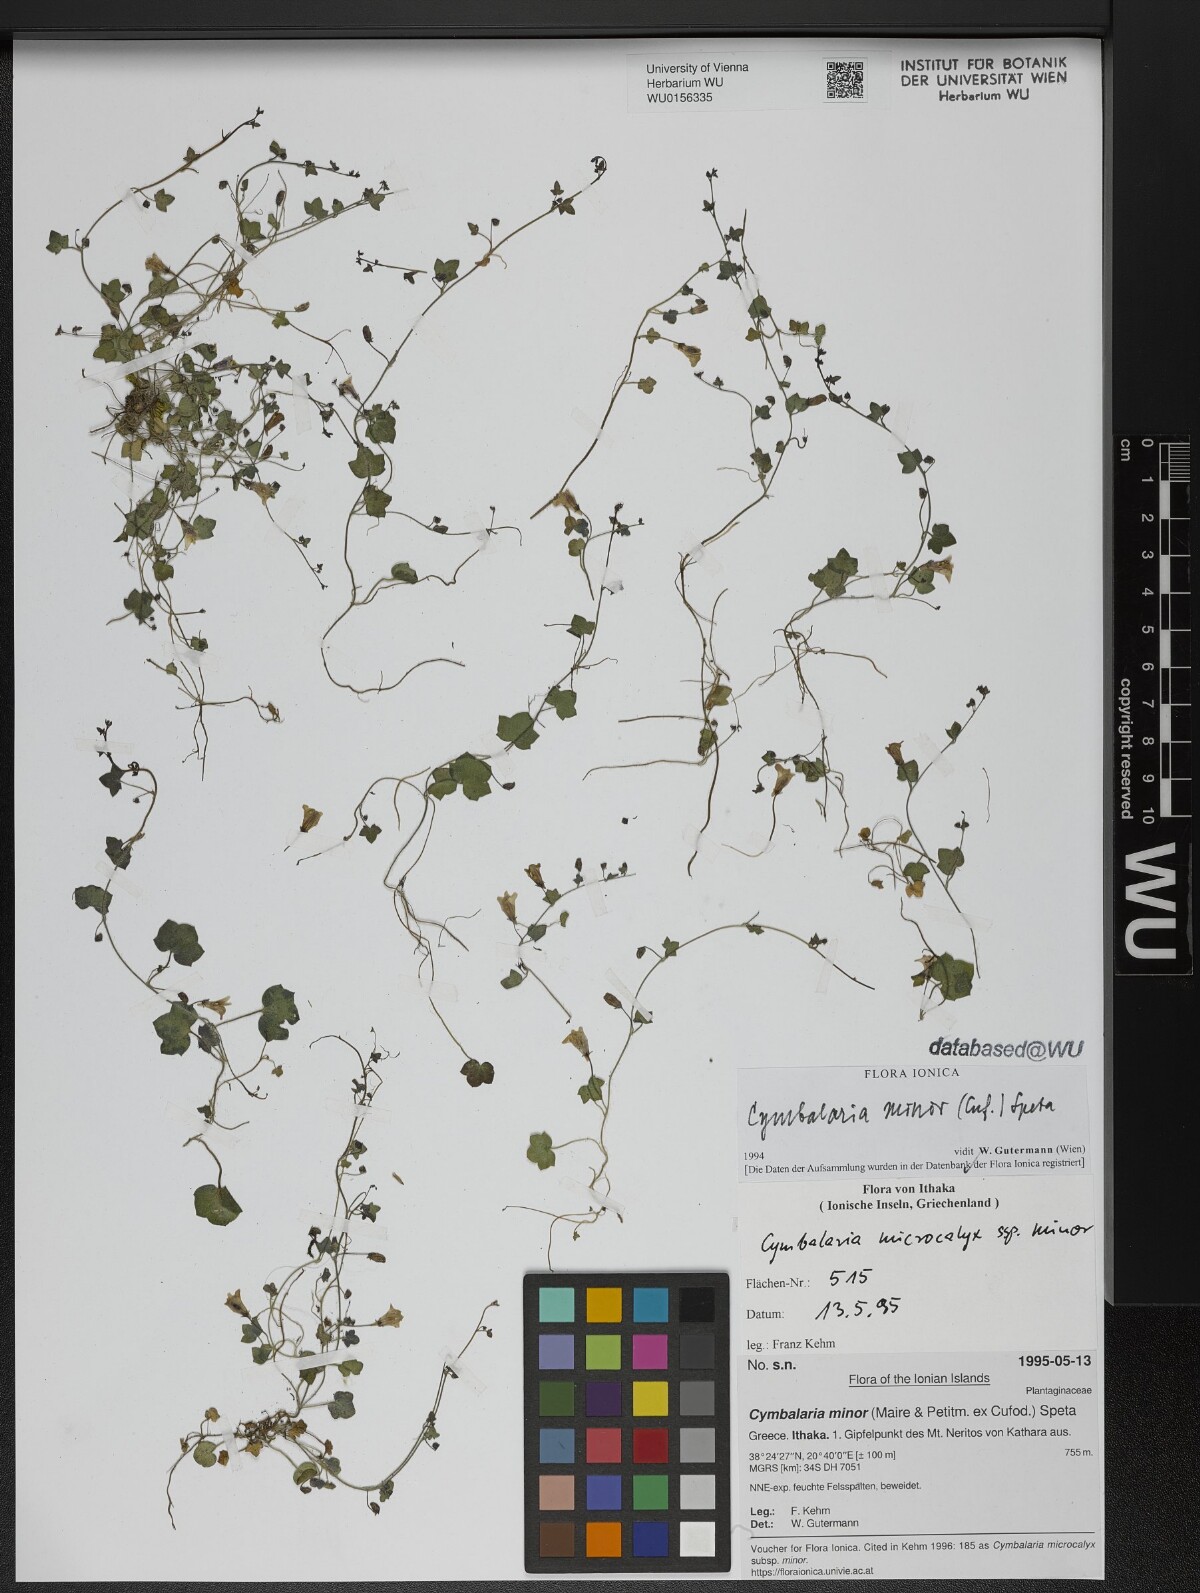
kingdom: Plantae
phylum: Tracheophyta
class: Magnoliopsida
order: Lamiales
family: Plantaginaceae
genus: Cymbalaria
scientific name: Cymbalaria minor
